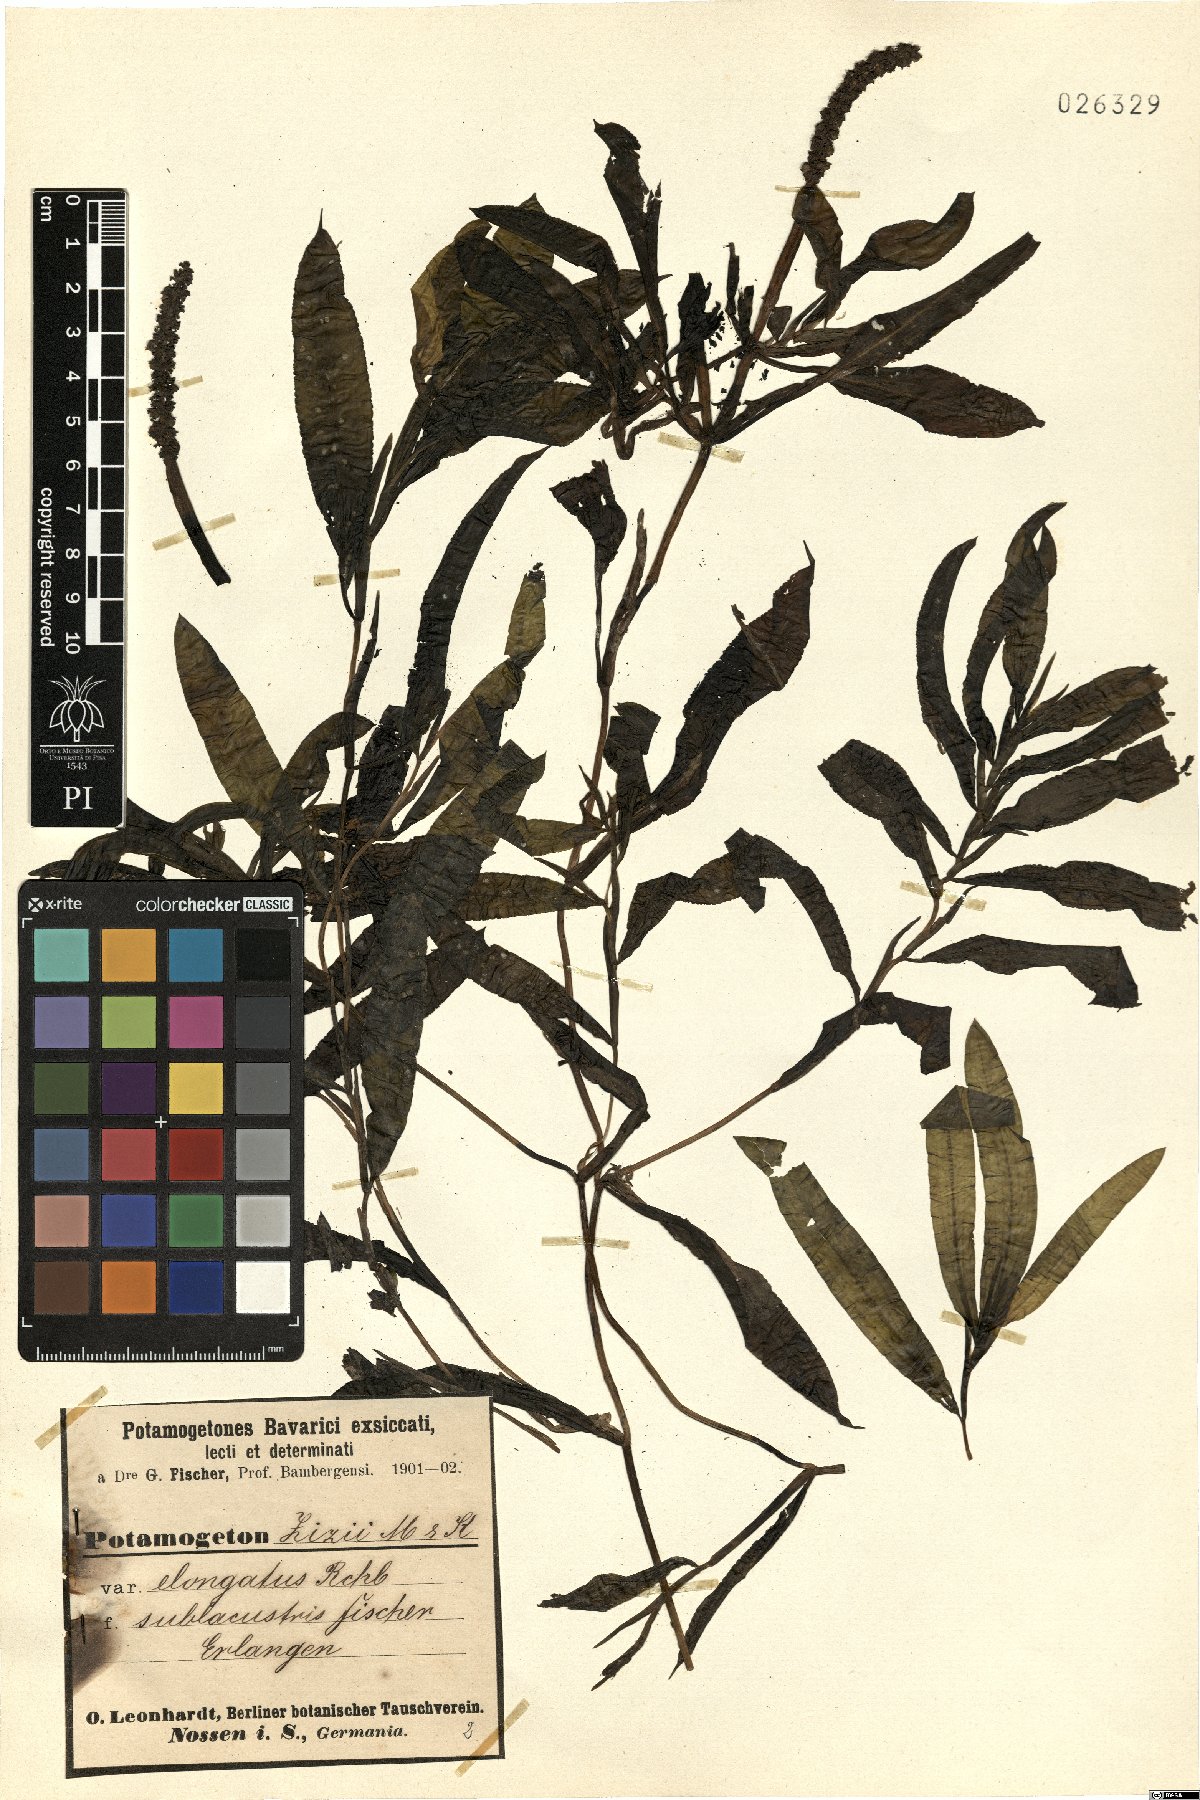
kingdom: Plantae
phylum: Tracheophyta
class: Liliopsida
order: Alismatales
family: Potamogetonaceae
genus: Potamogeton
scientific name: Potamogeton angustifolius
